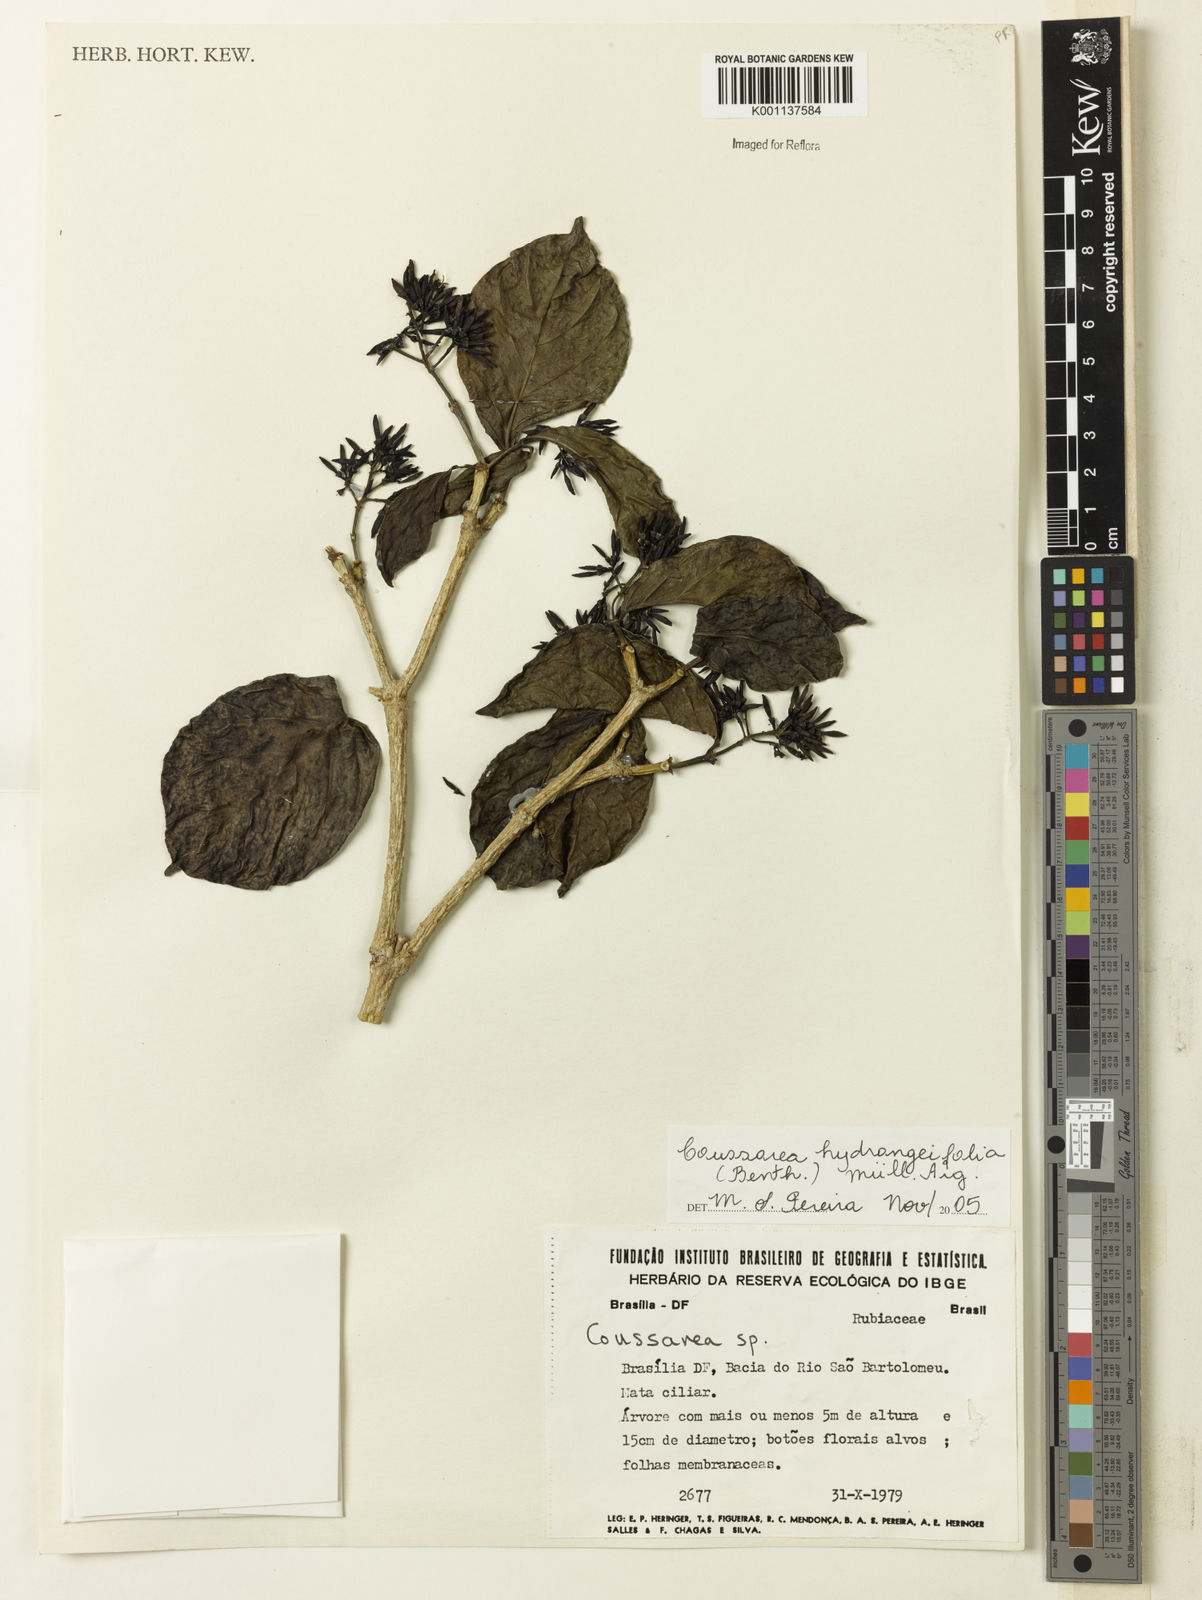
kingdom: Plantae
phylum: Tracheophyta
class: Magnoliopsida
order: Gentianales
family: Rubiaceae
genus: Coussarea
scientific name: Coussarea
